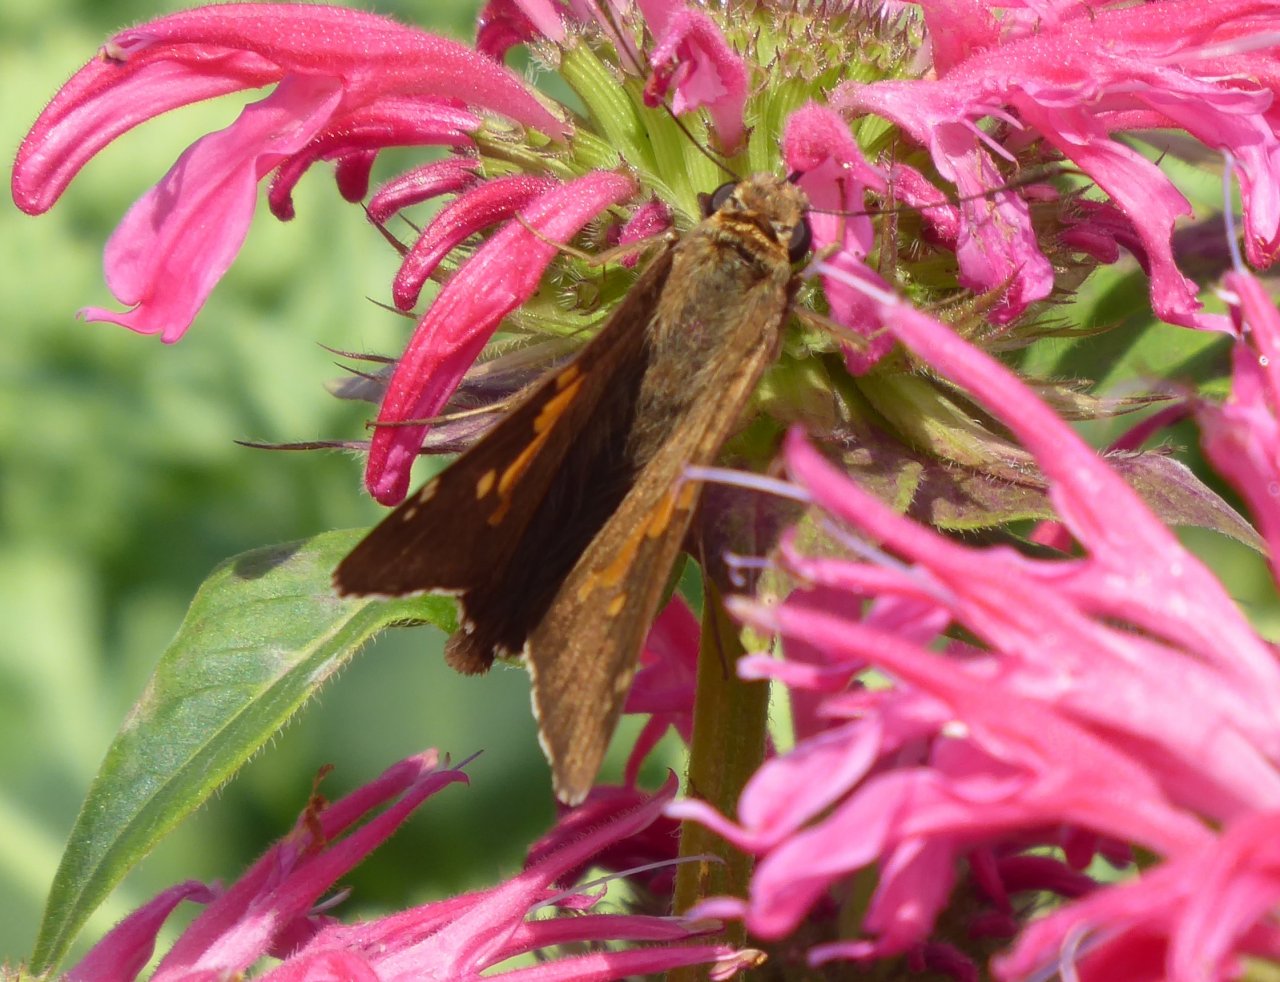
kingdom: Animalia
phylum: Arthropoda
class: Insecta
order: Lepidoptera
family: Hesperiidae
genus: Polites
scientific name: Polites themistocles
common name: Tawny-edged Skipper
